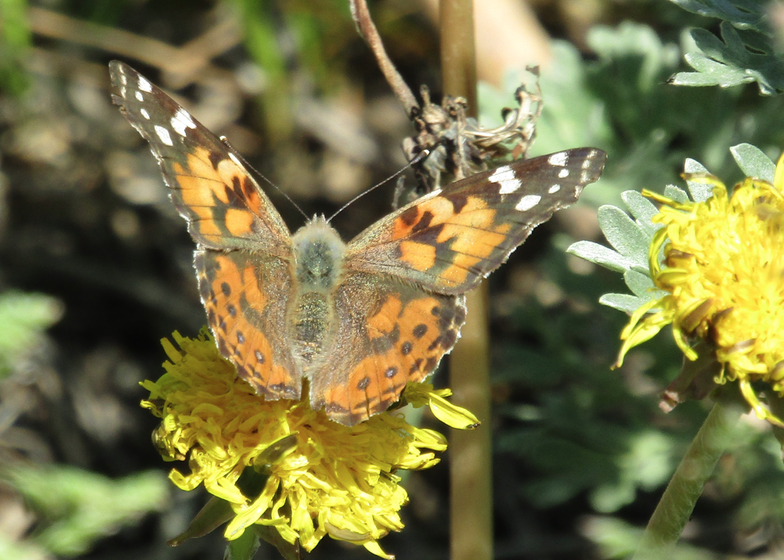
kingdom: Animalia
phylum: Arthropoda
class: Insecta
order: Lepidoptera
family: Nymphalidae
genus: Vanessa
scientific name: Vanessa cardui
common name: Painted Lady
